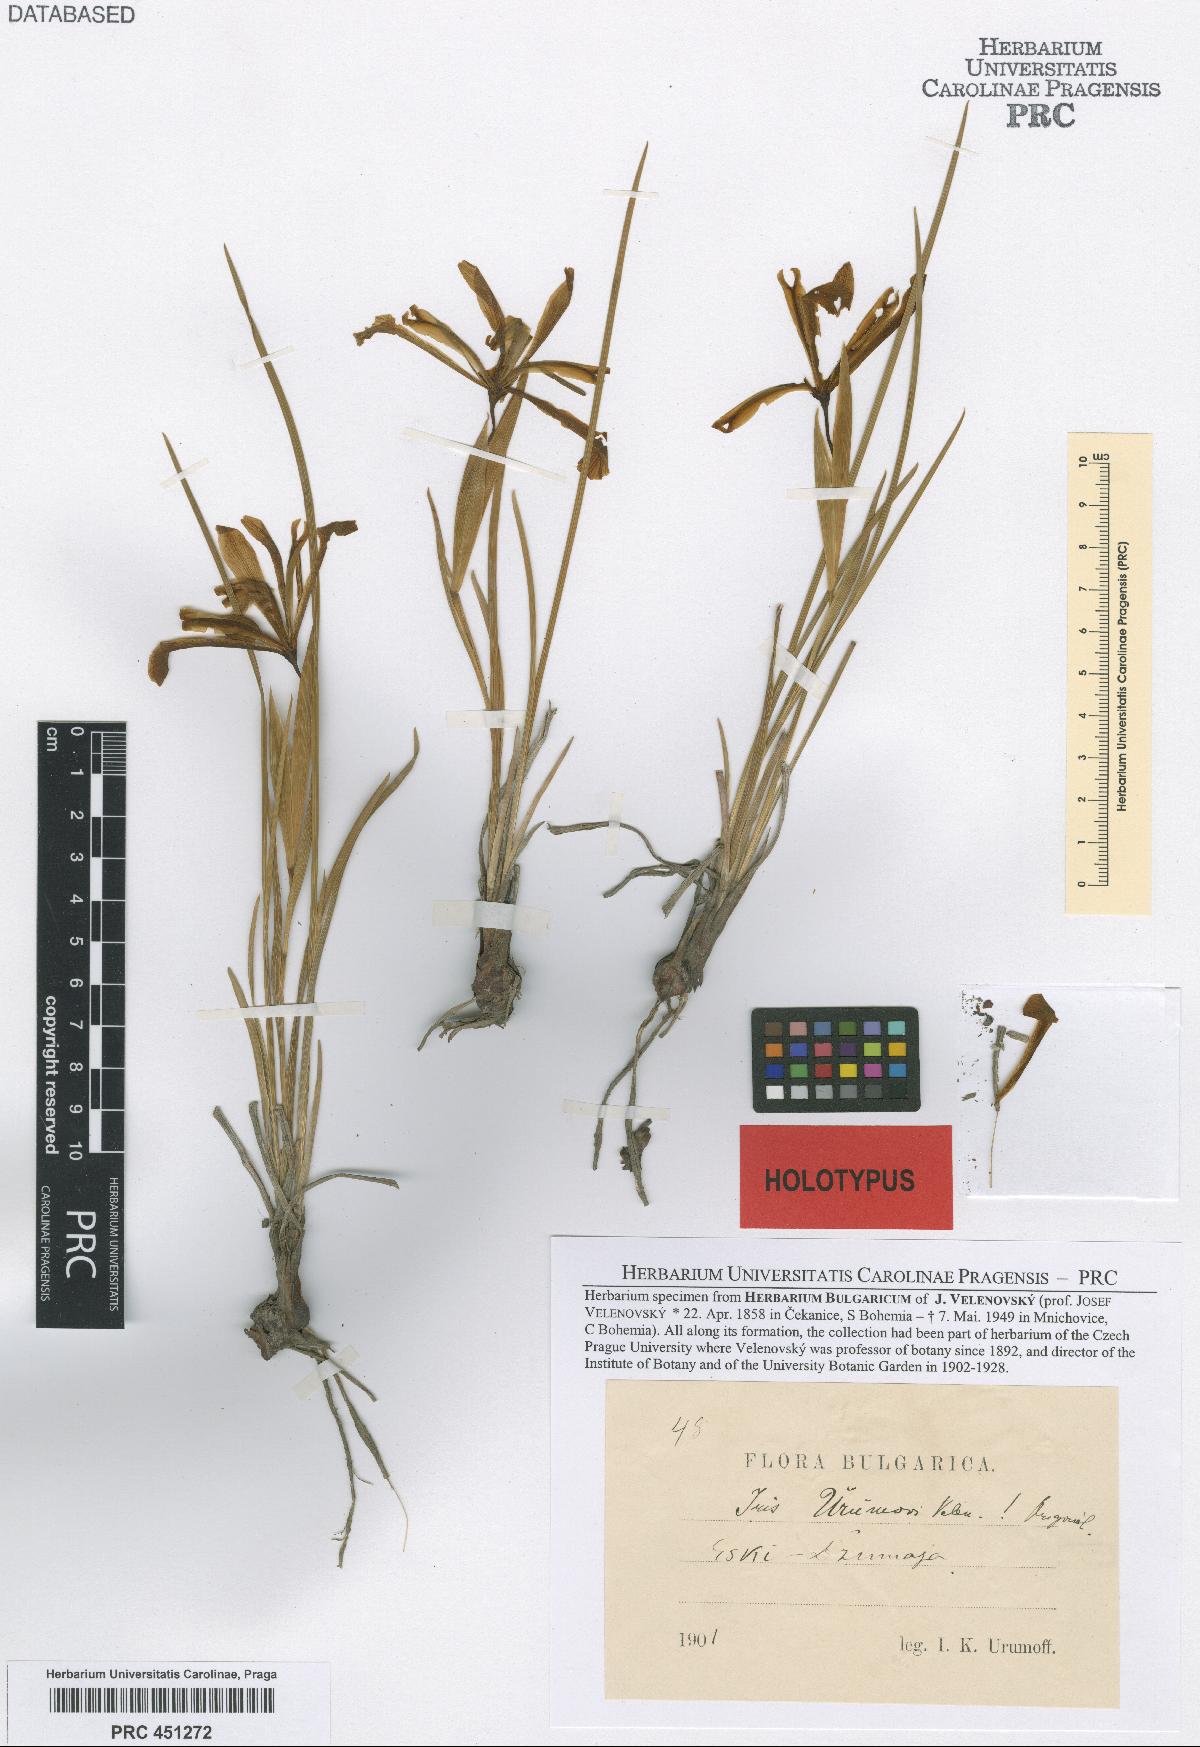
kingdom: Plantae
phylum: Tracheophyta
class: Liliopsida
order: Asparagales
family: Iridaceae
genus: Iris
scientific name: Iris sintenisii
